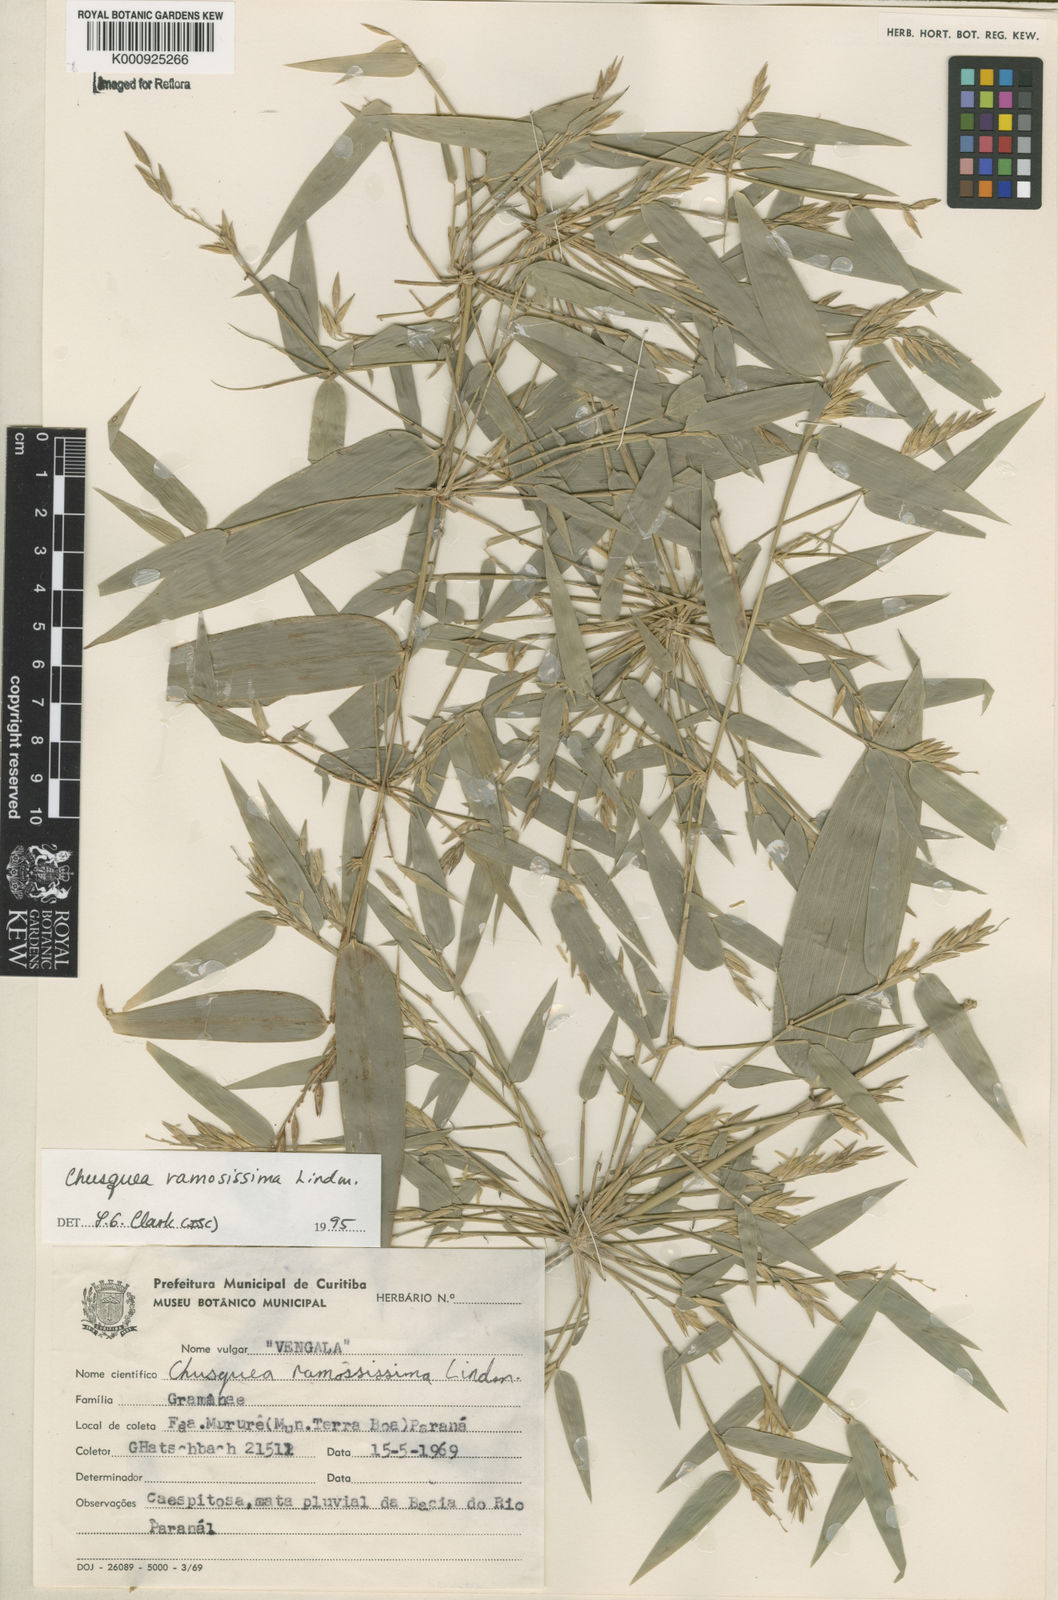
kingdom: Plantae
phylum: Tracheophyta
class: Liliopsida
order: Poales
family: Poaceae
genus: Chusquea
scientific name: Chusquea ramosissima
